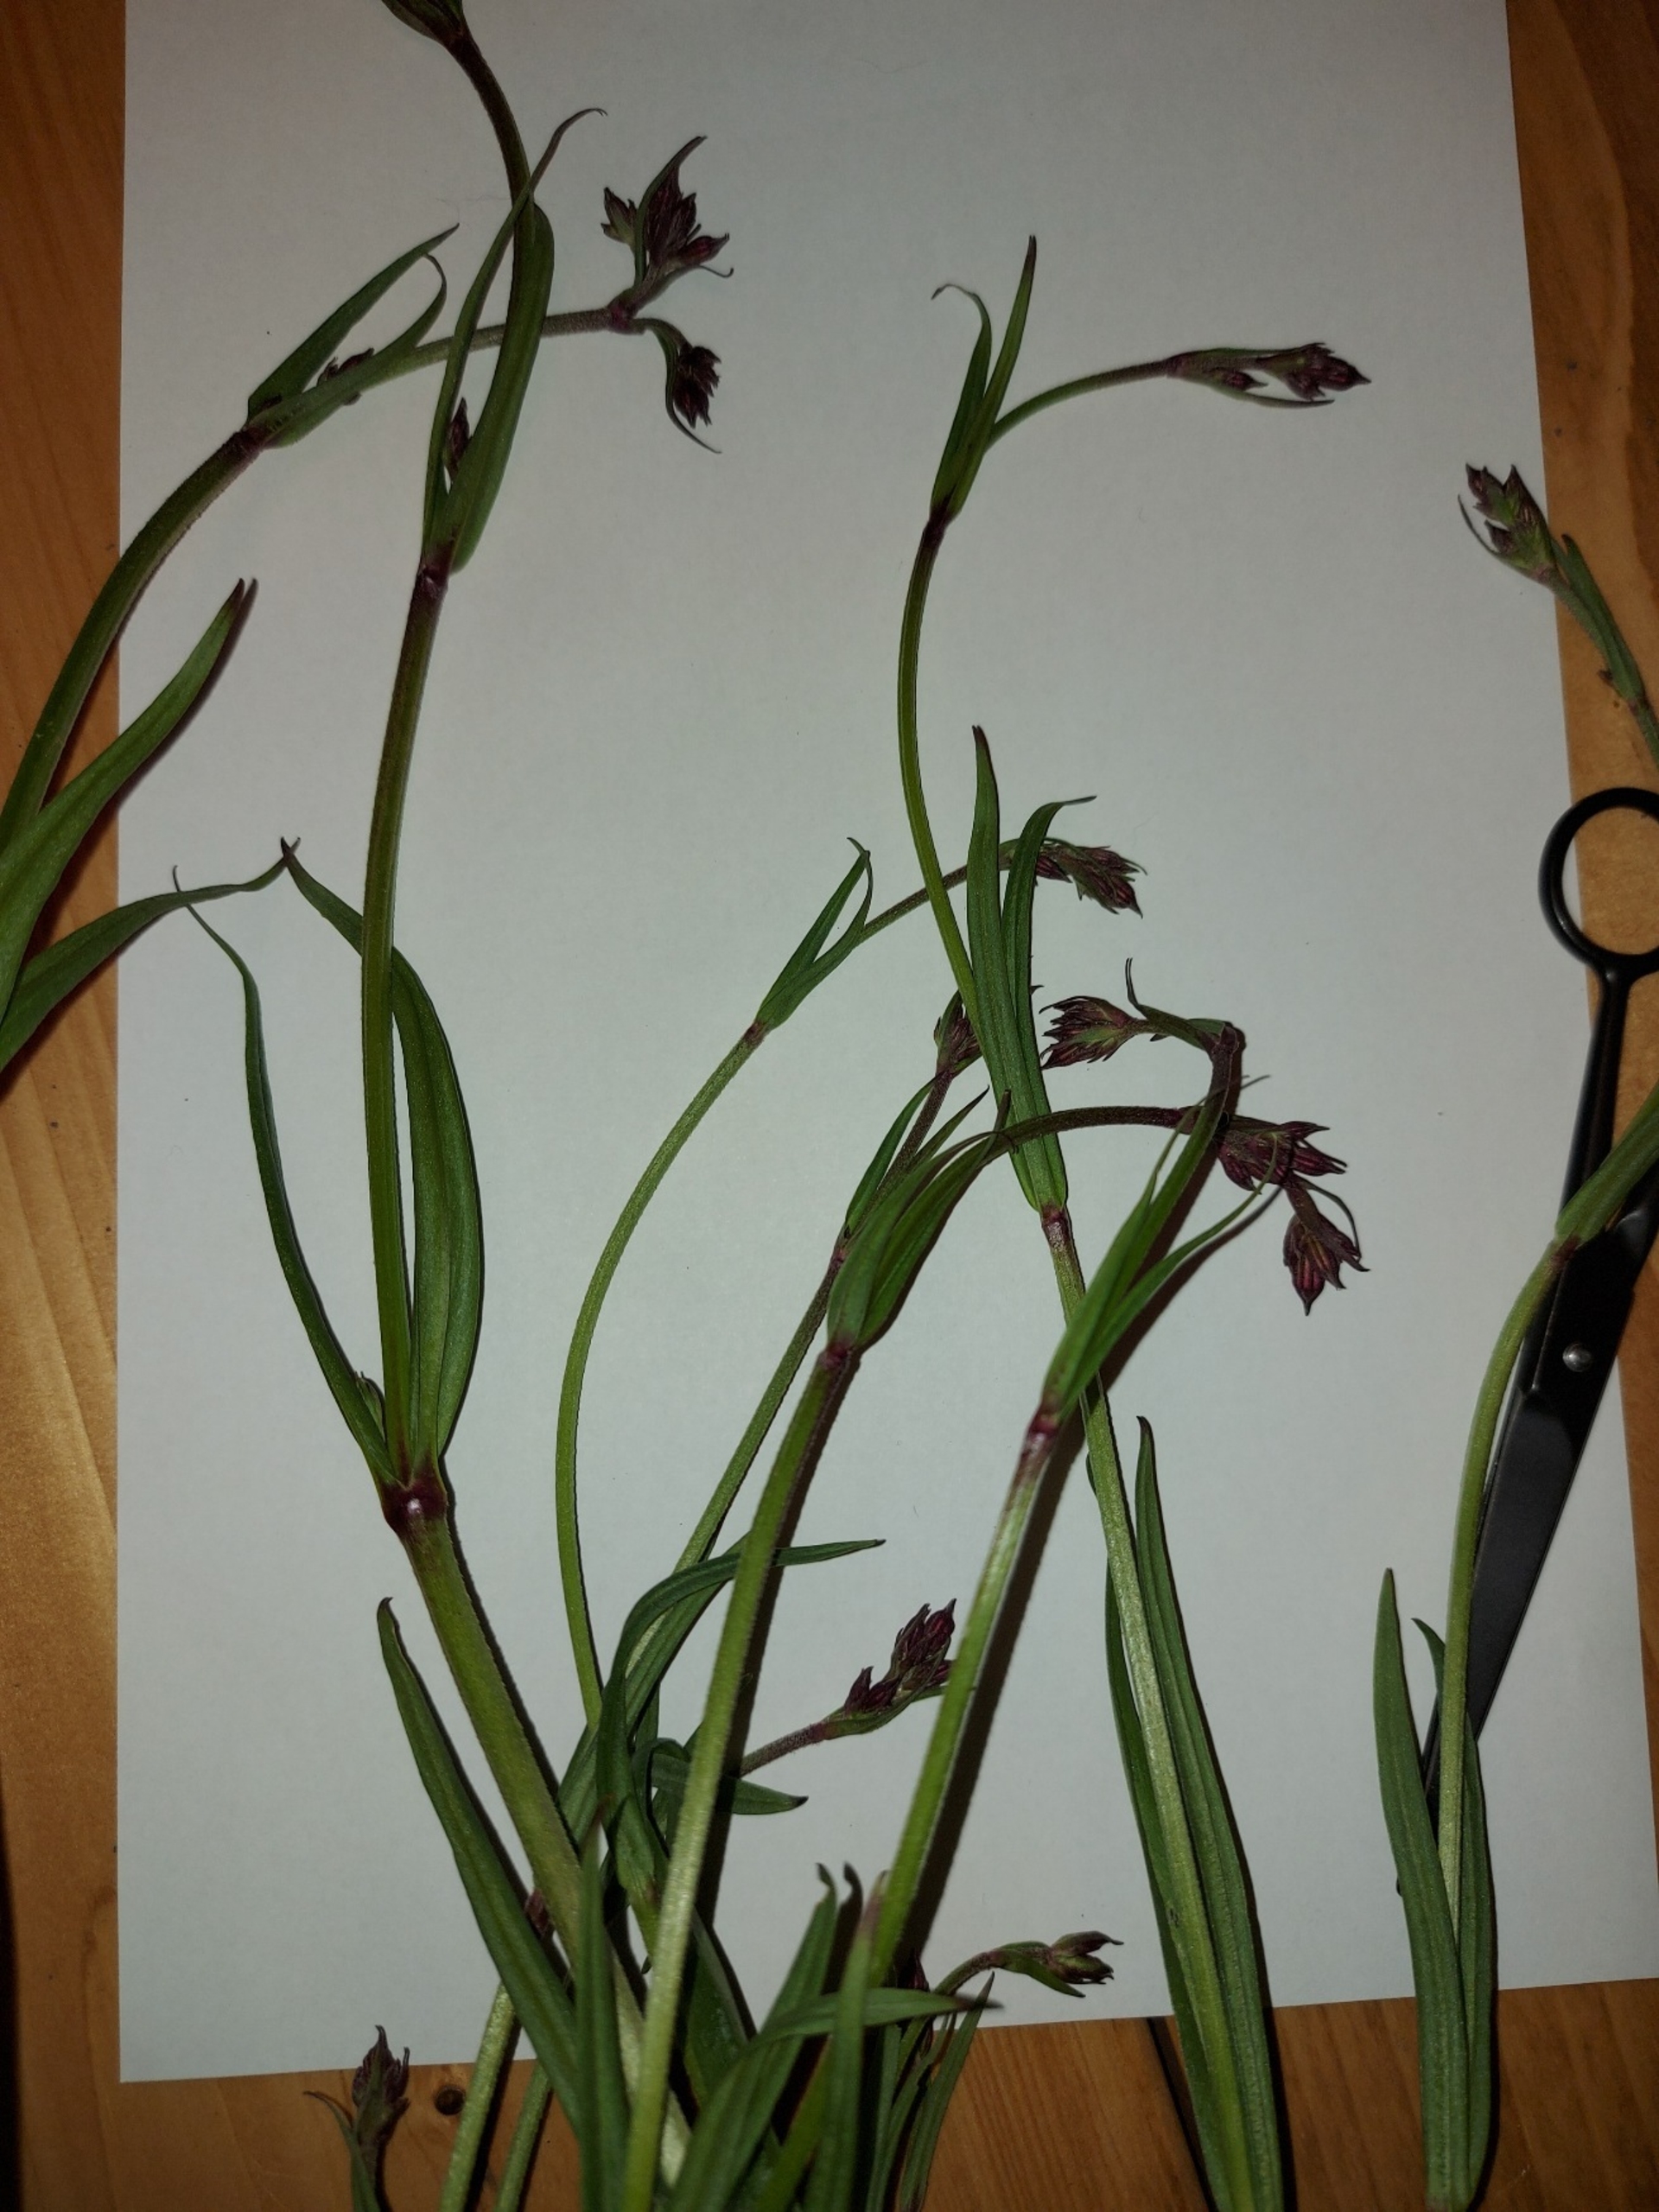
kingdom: Plantae
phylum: Tracheophyta
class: Magnoliopsida
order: Caryophyllales
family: Caryophyllaceae
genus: Silene
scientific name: Silene flos-cuculi
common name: Trævlekrone
